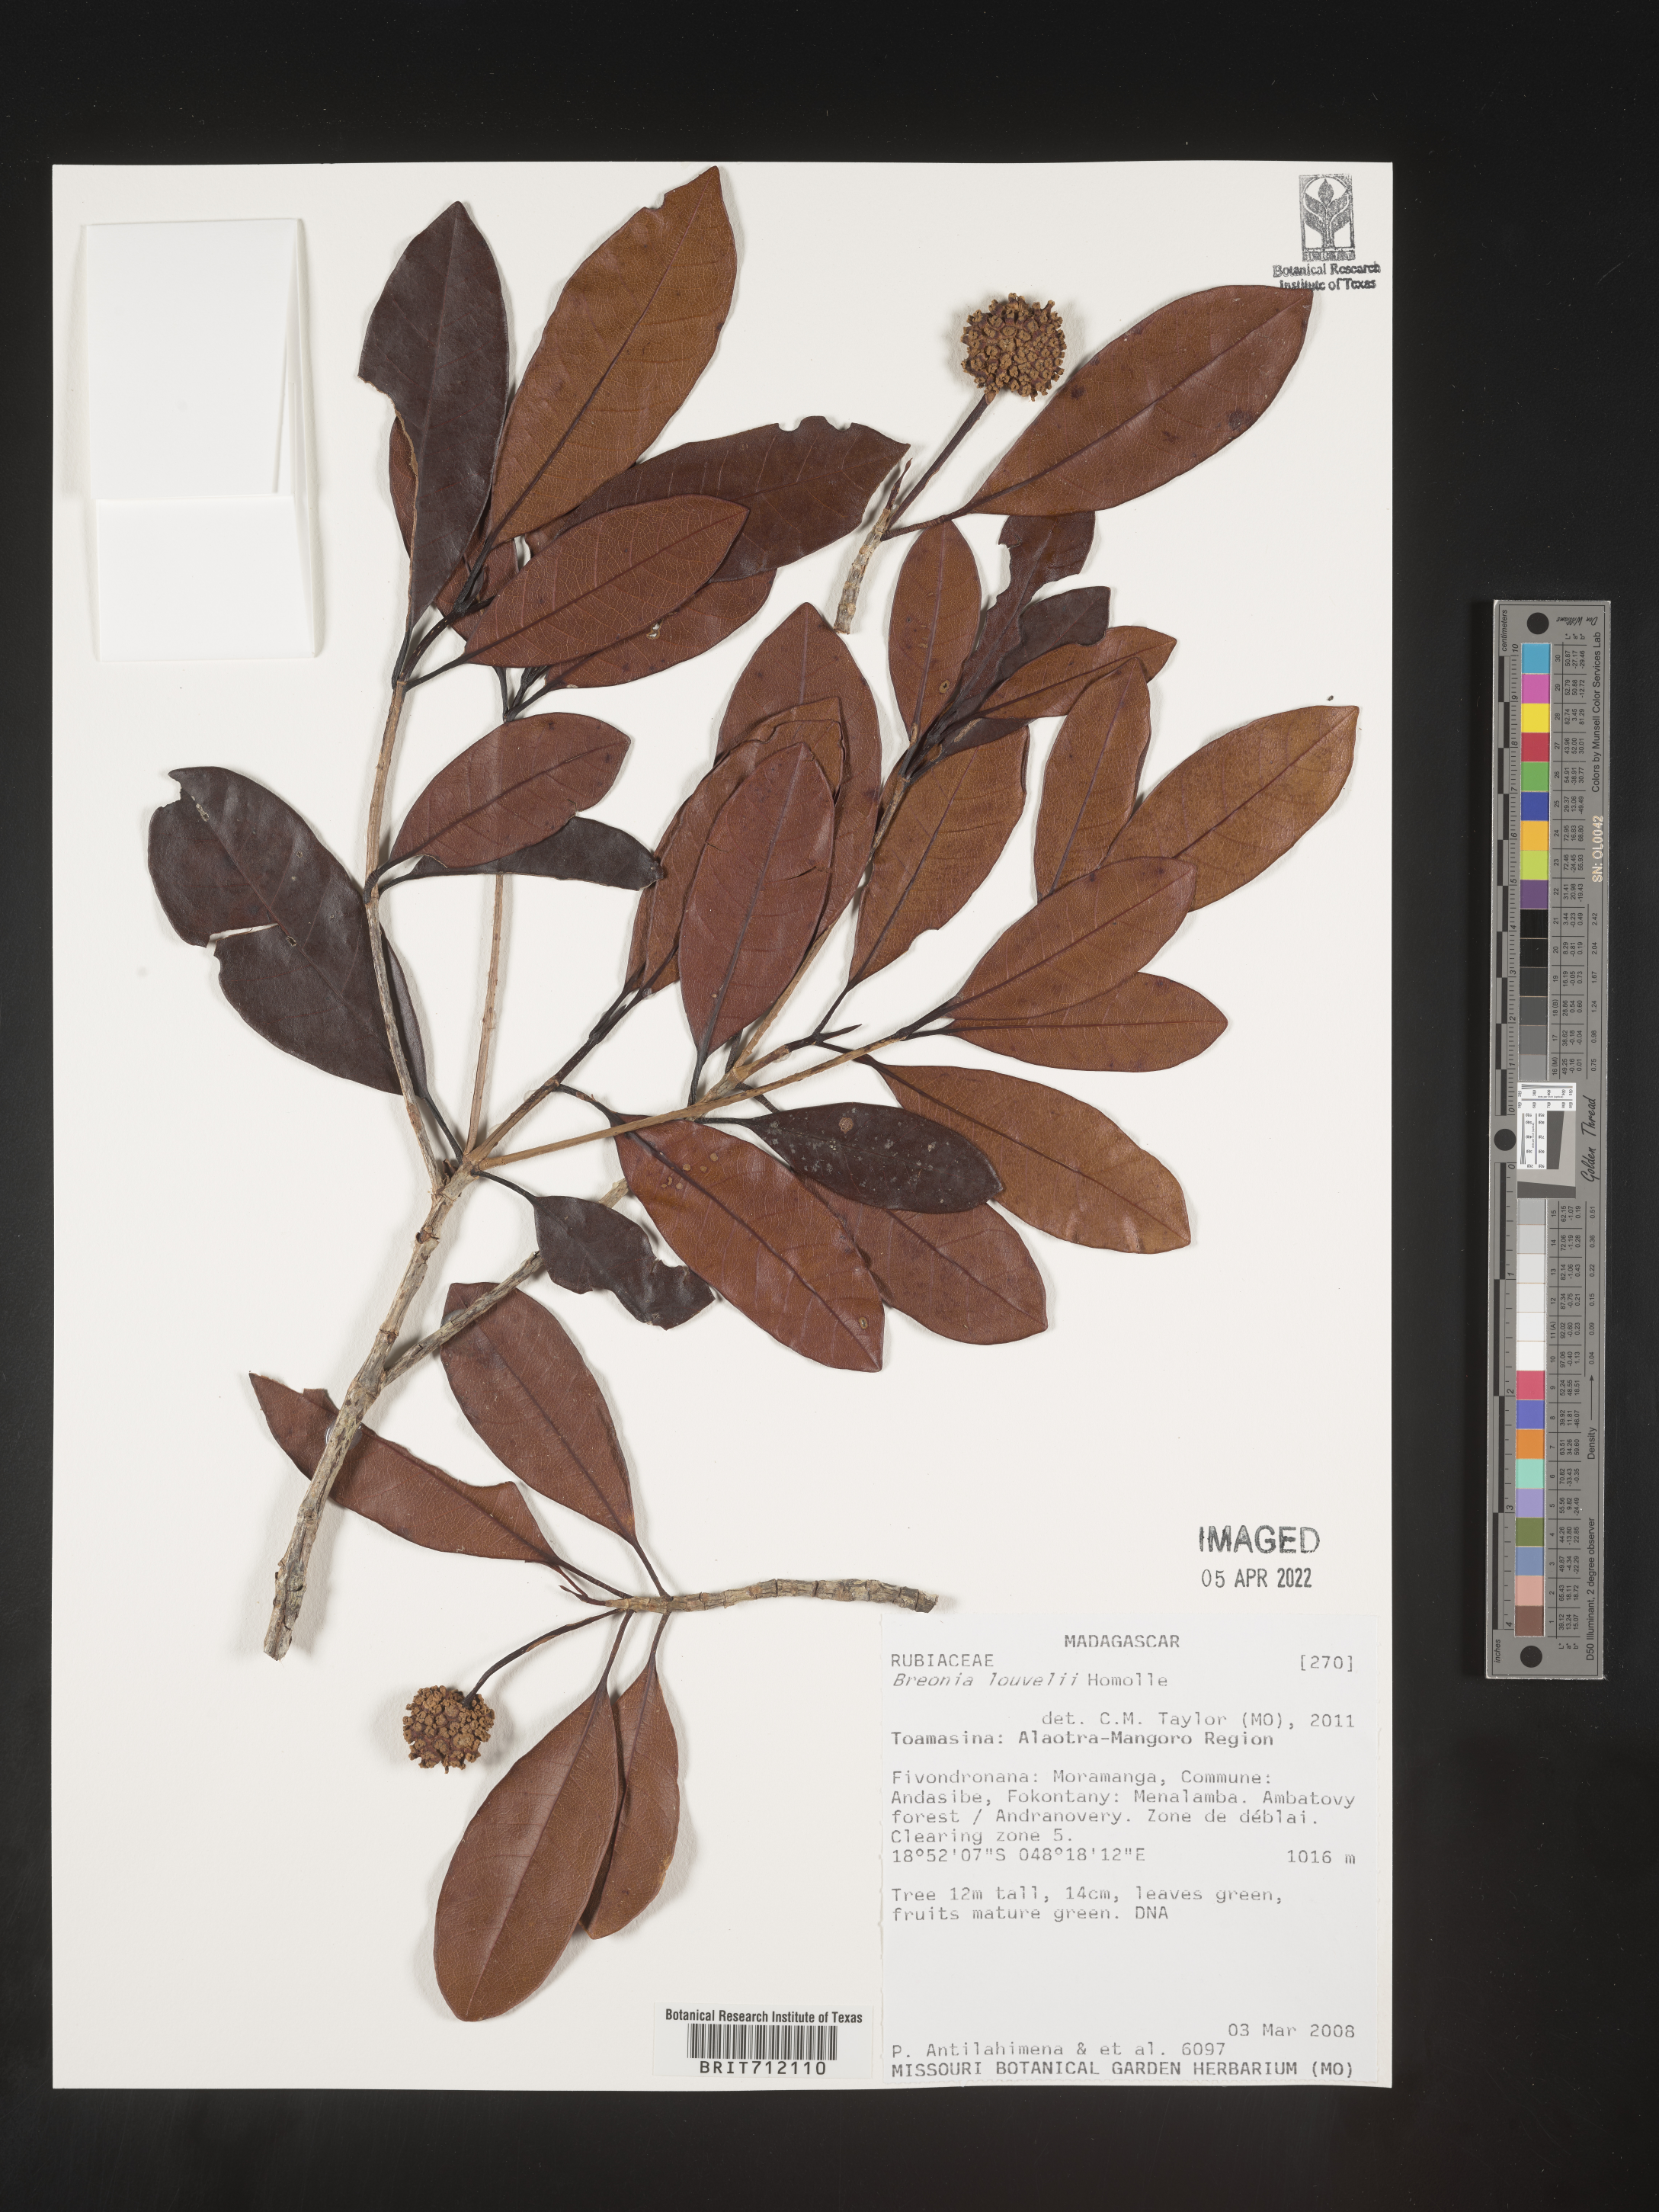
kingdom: Plantae
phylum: Tracheophyta
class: Magnoliopsida
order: Gentianales
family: Rubiaceae
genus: Breonia
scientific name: Breonia
